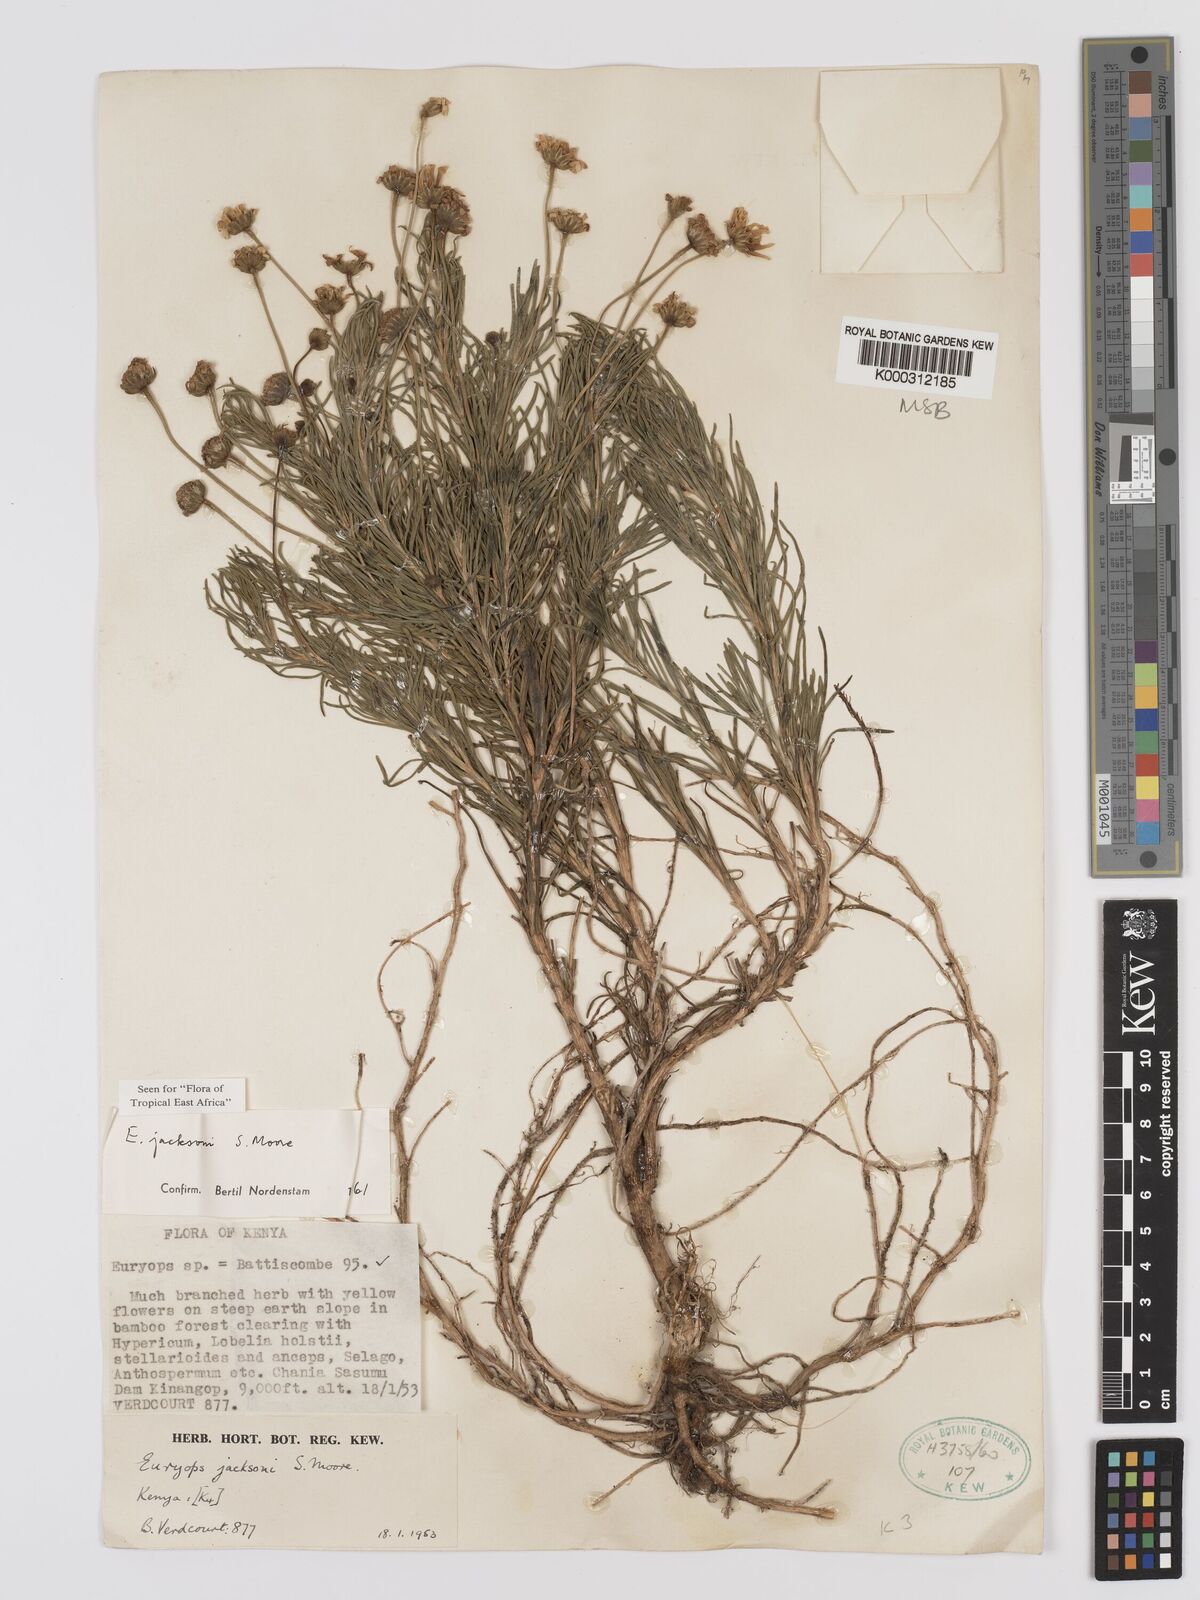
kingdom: Plantae
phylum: Tracheophyta
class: Magnoliopsida
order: Asterales
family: Asteraceae
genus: Euryops
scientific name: Euryops jacksonii
